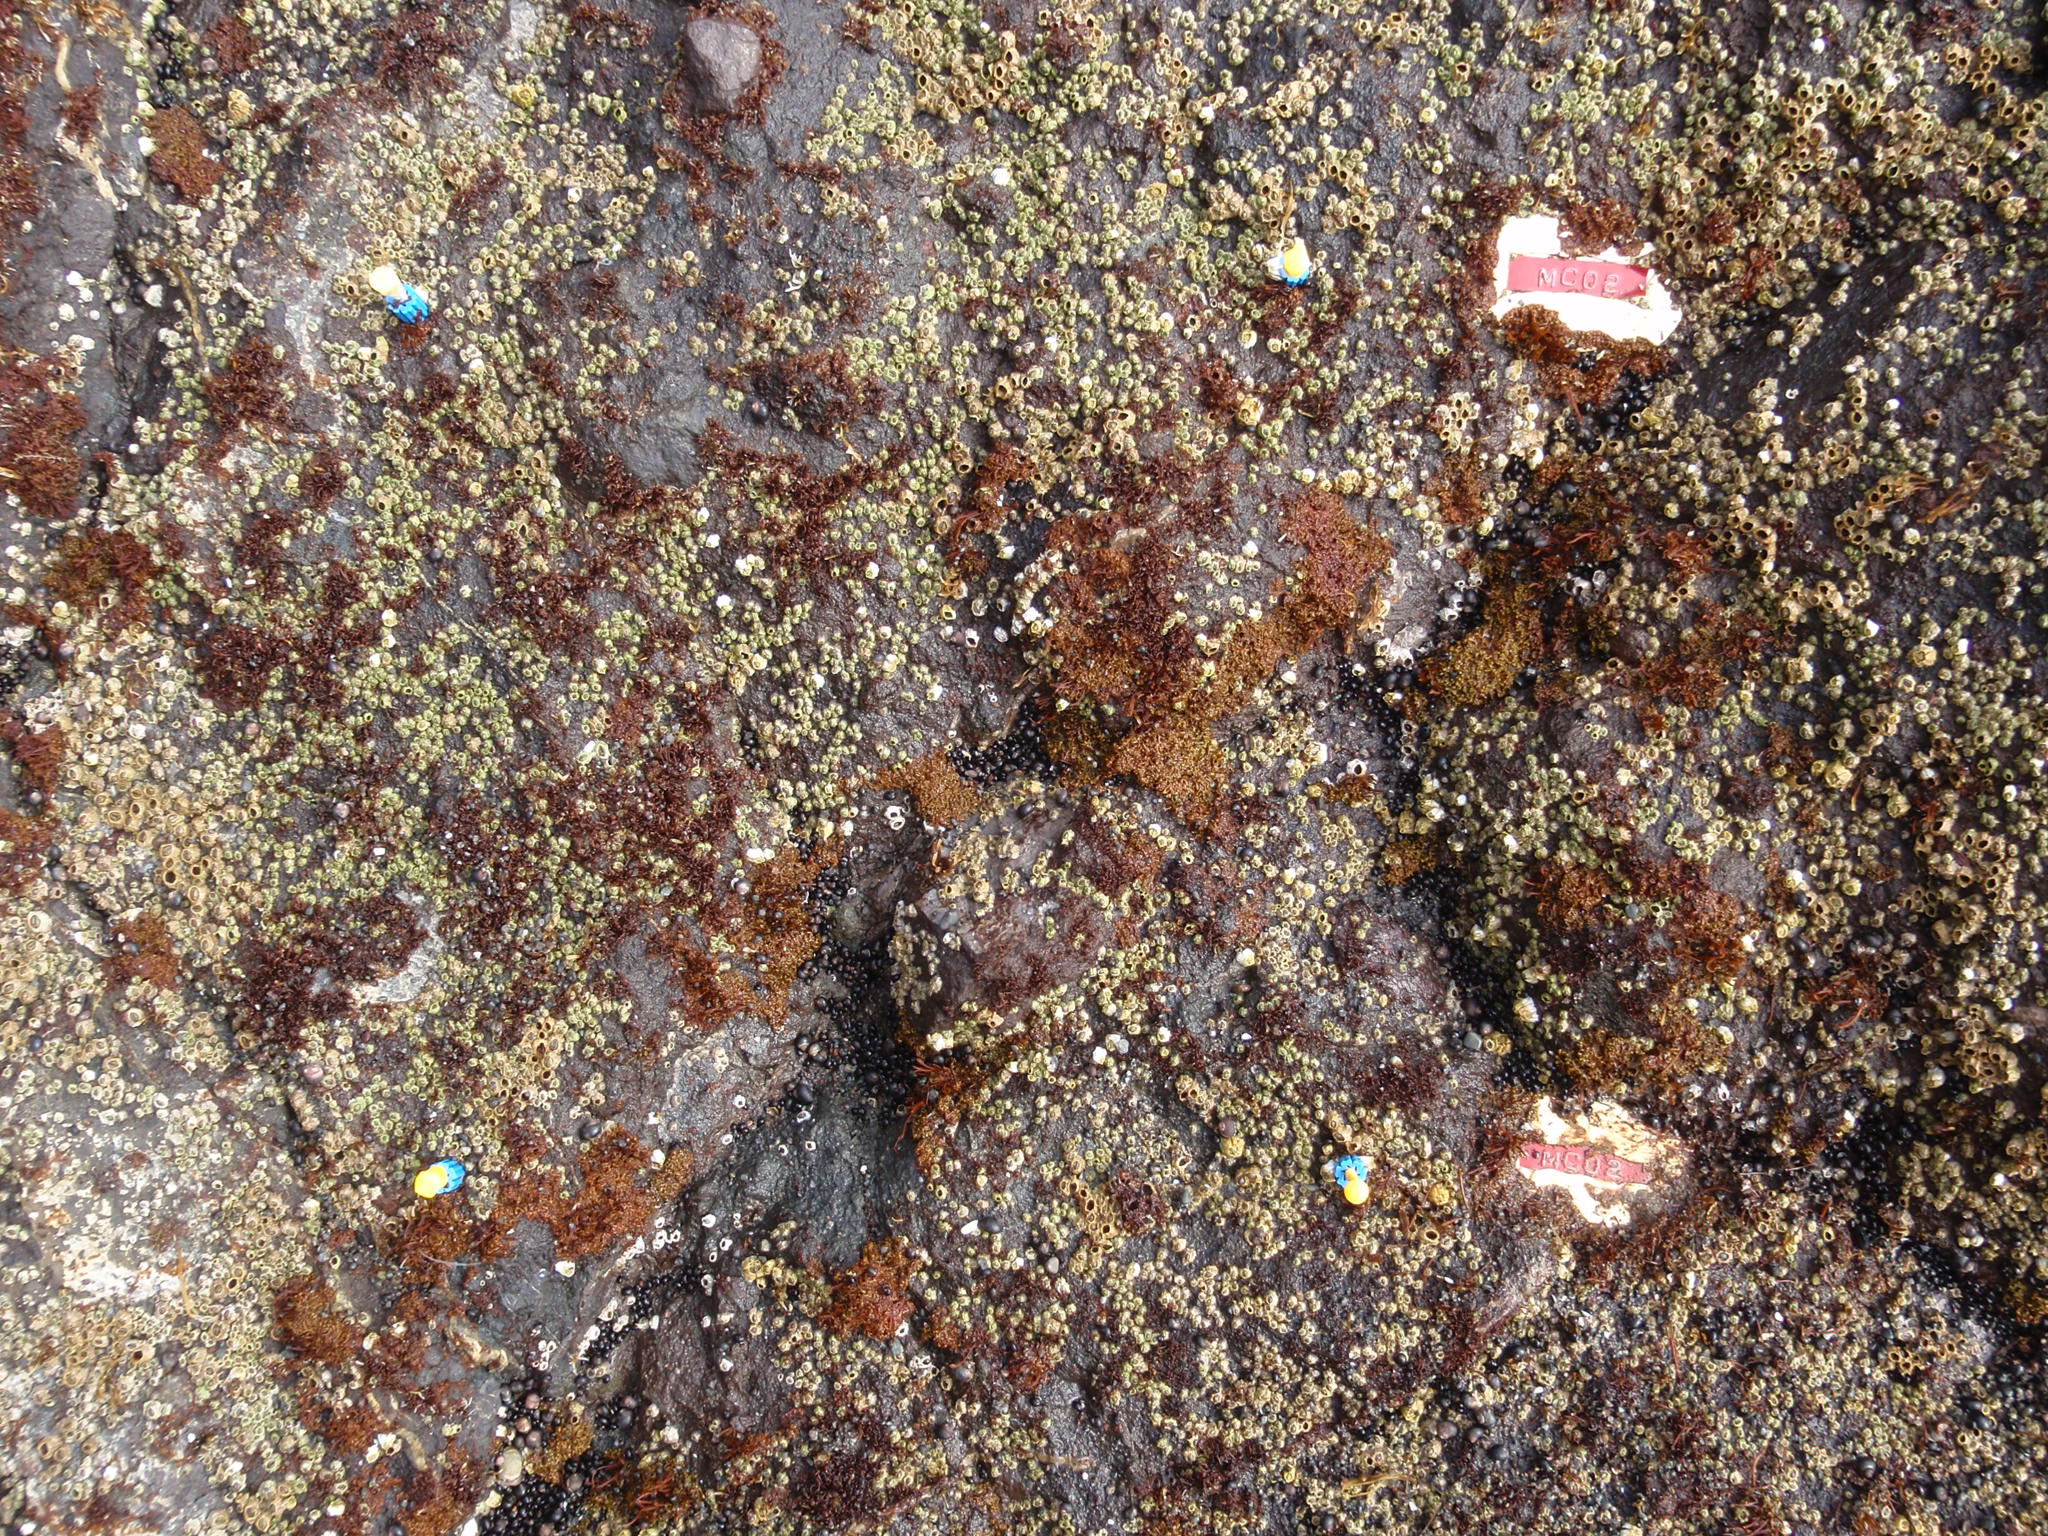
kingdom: Plantae
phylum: Rhodophyta
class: Florideophyceae
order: Gigartinales
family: Endocladiaceae
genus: Gloiopeltis
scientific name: Gloiopeltis furcata
